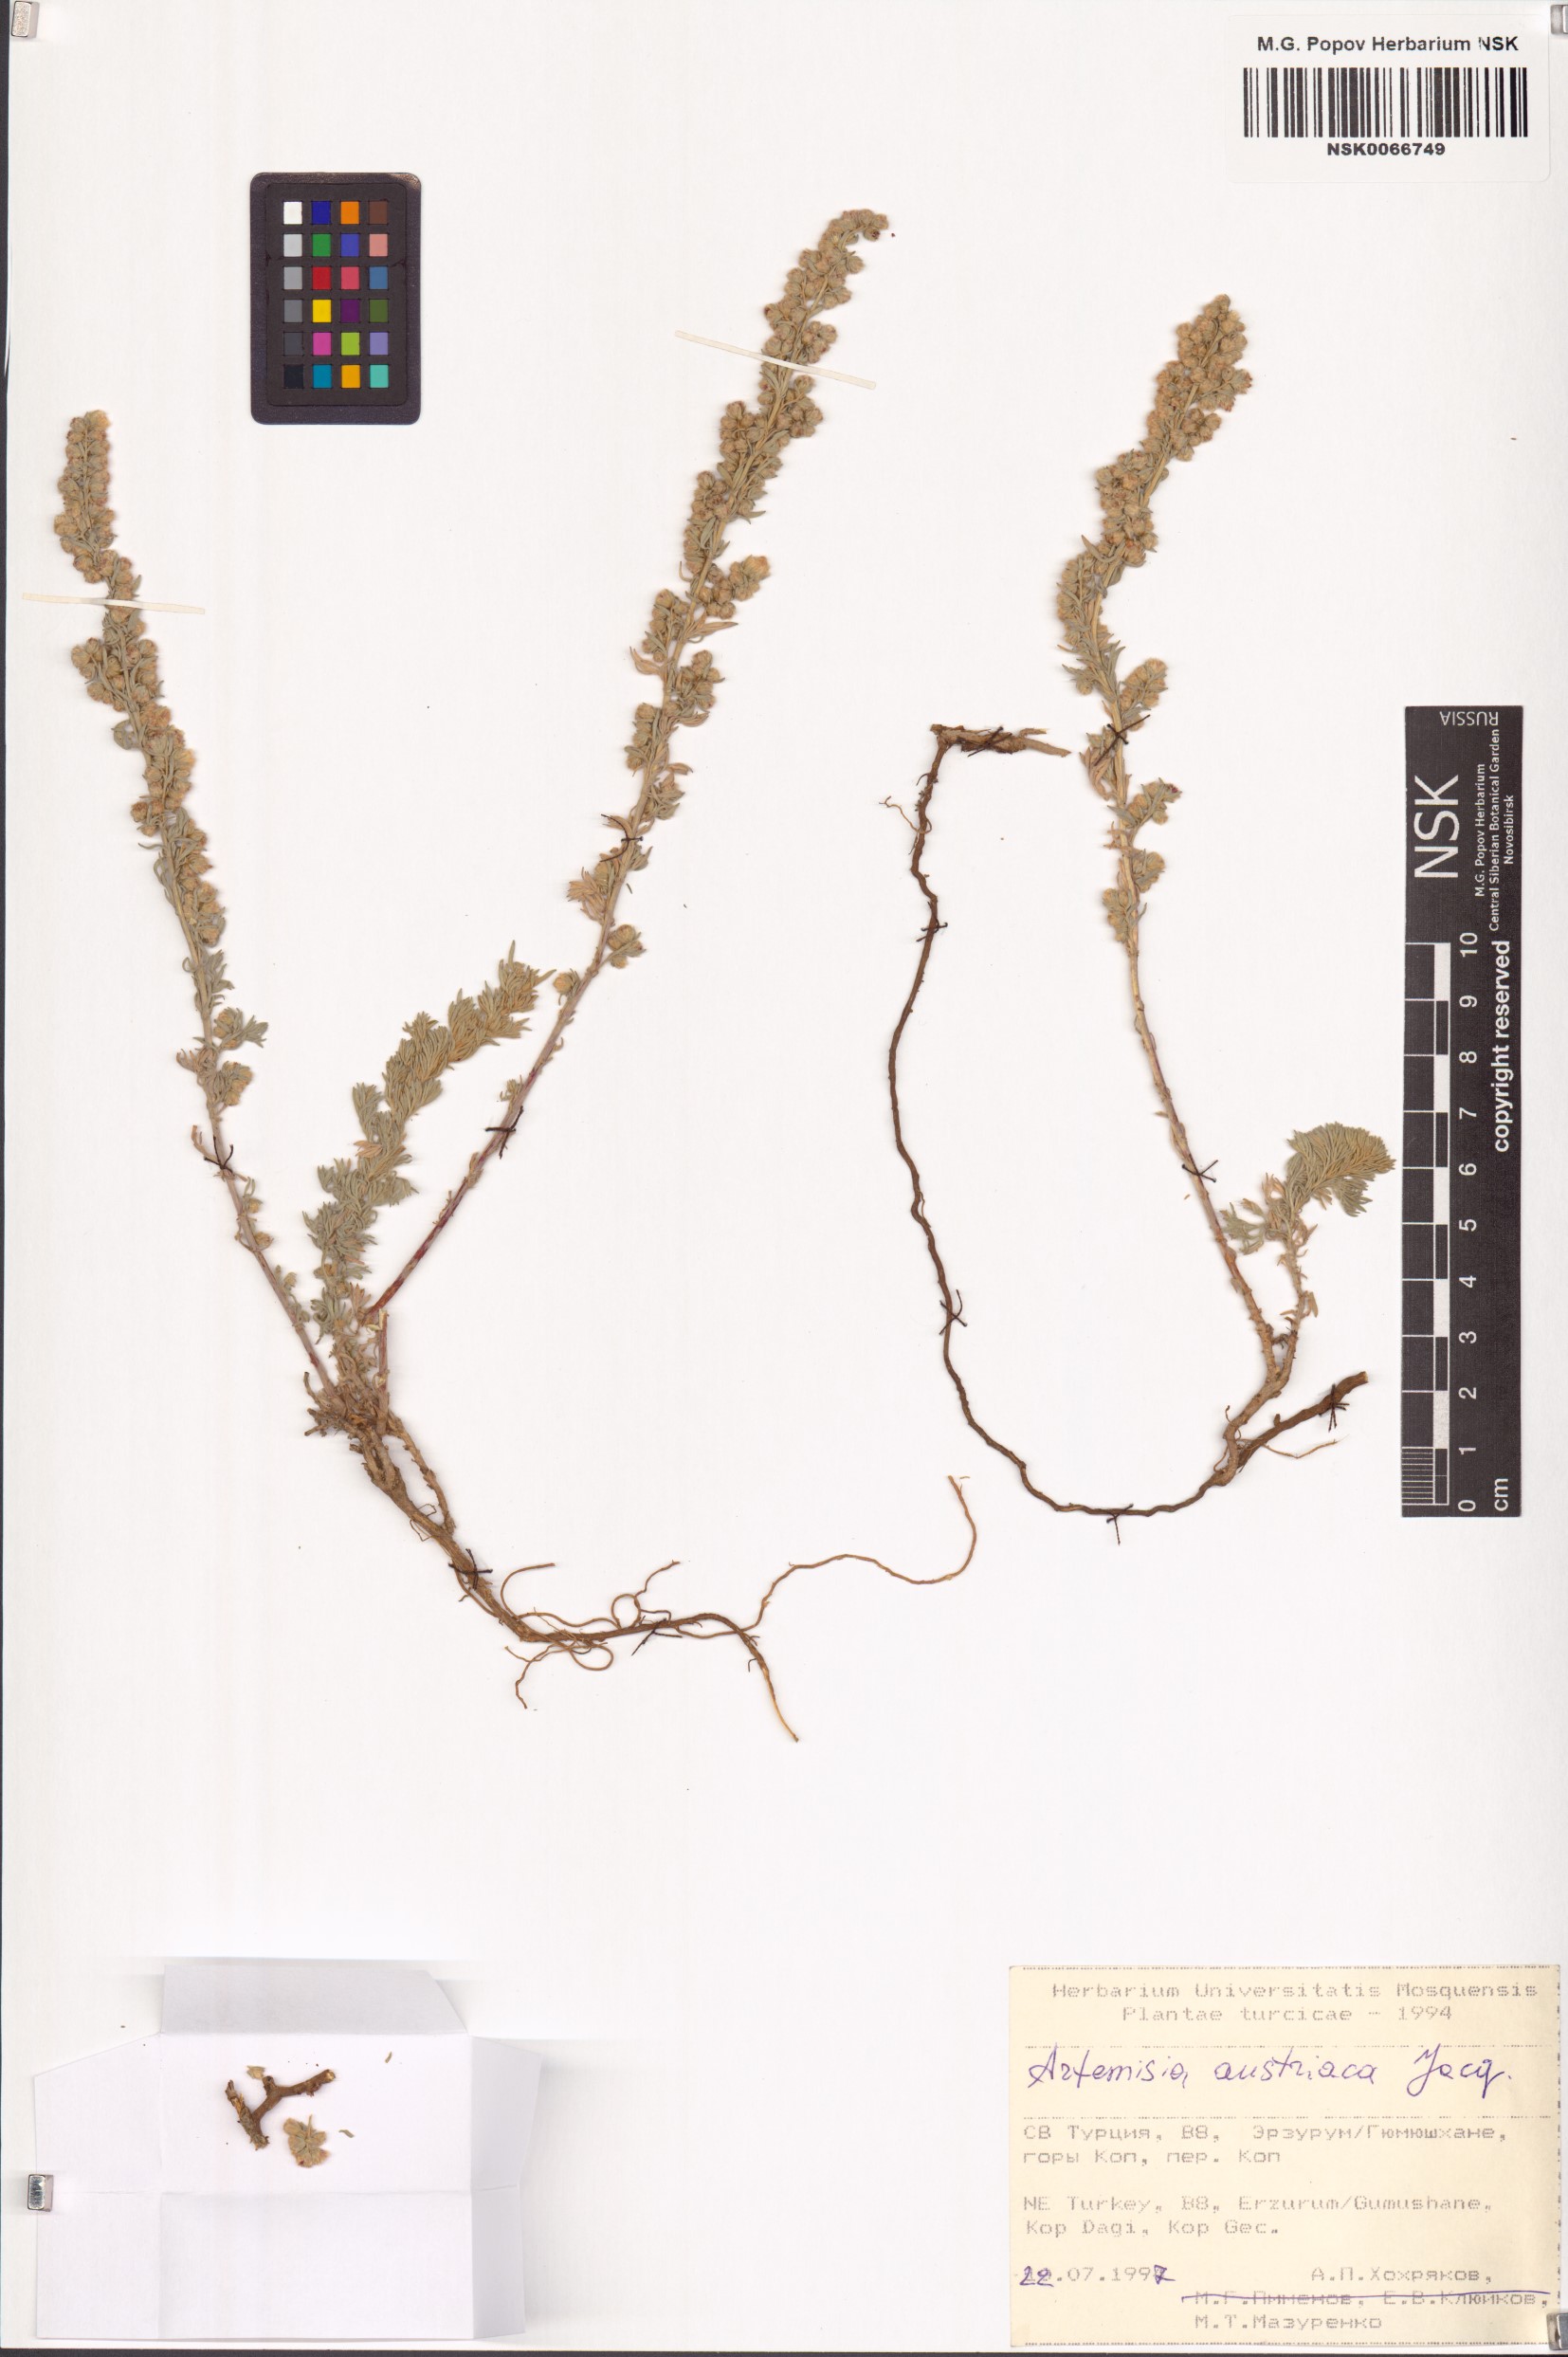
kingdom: Plantae
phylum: Tracheophyta
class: Magnoliopsida
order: Asterales
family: Asteraceae
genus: Artemisia
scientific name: Artemisia austriaca
